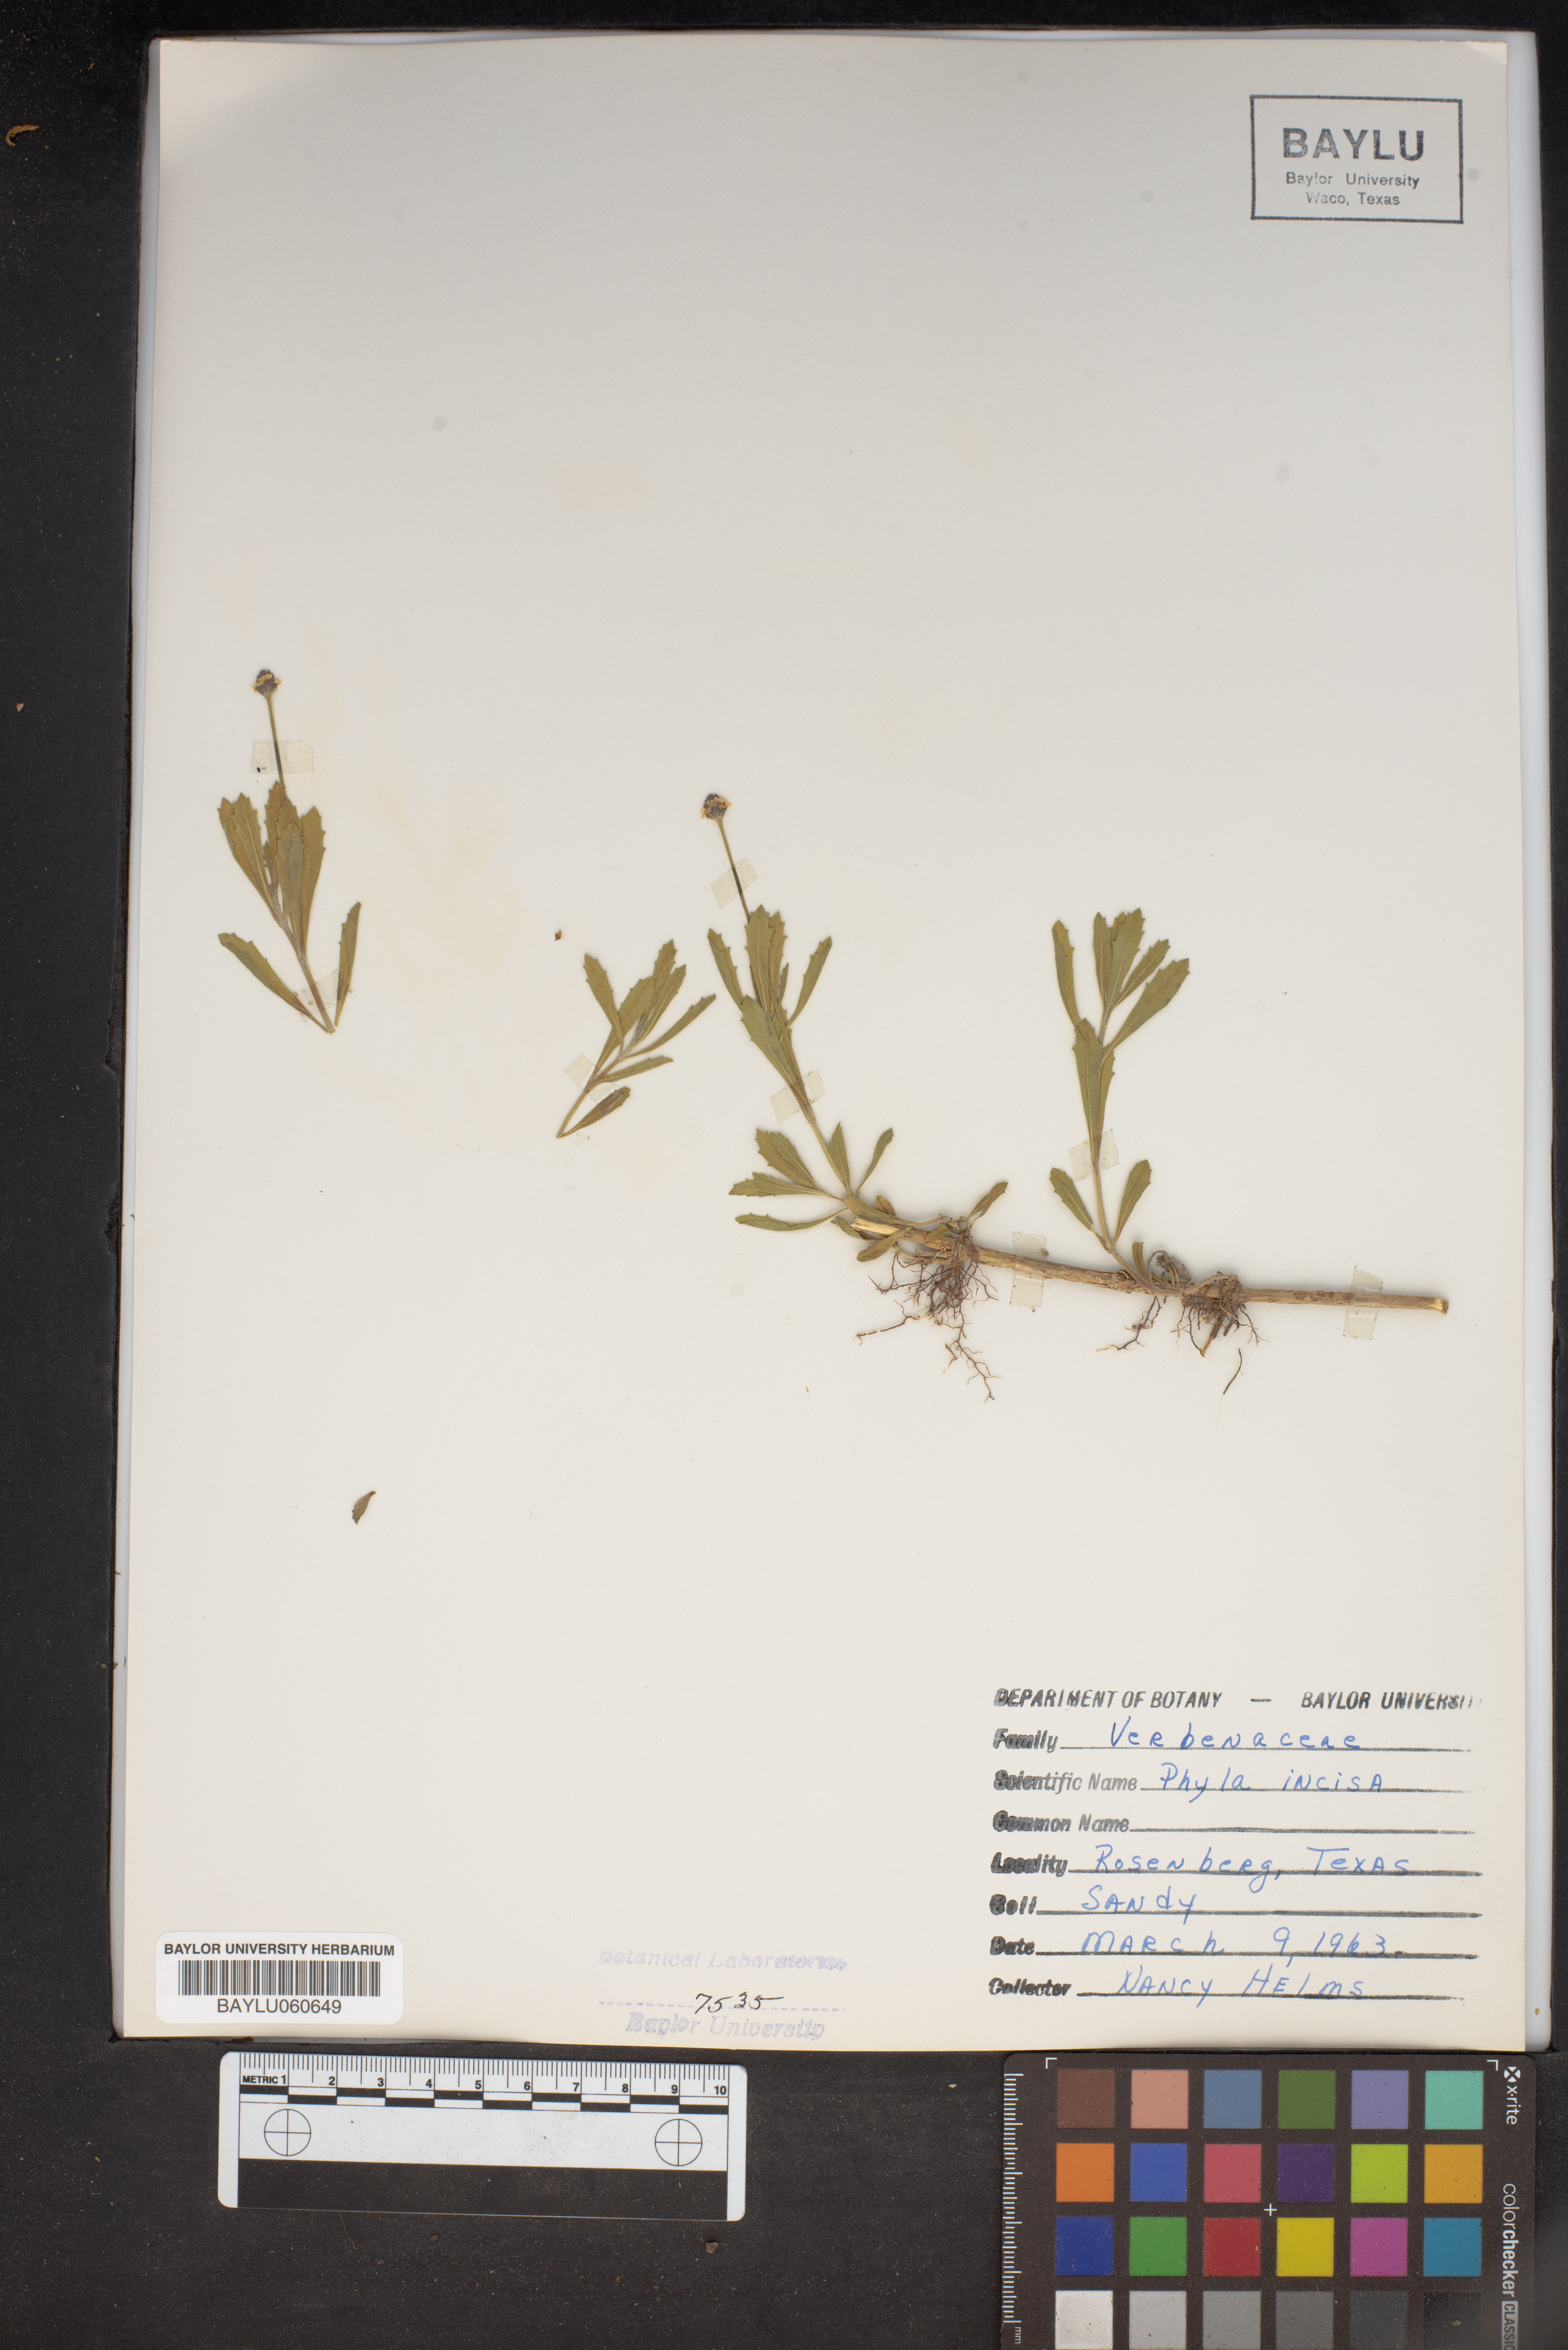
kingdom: Plantae
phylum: Tracheophyta
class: Magnoliopsida
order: Lamiales
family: Verbenaceae
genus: Phyla
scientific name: Phyla nodiflora
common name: Frogfruit
